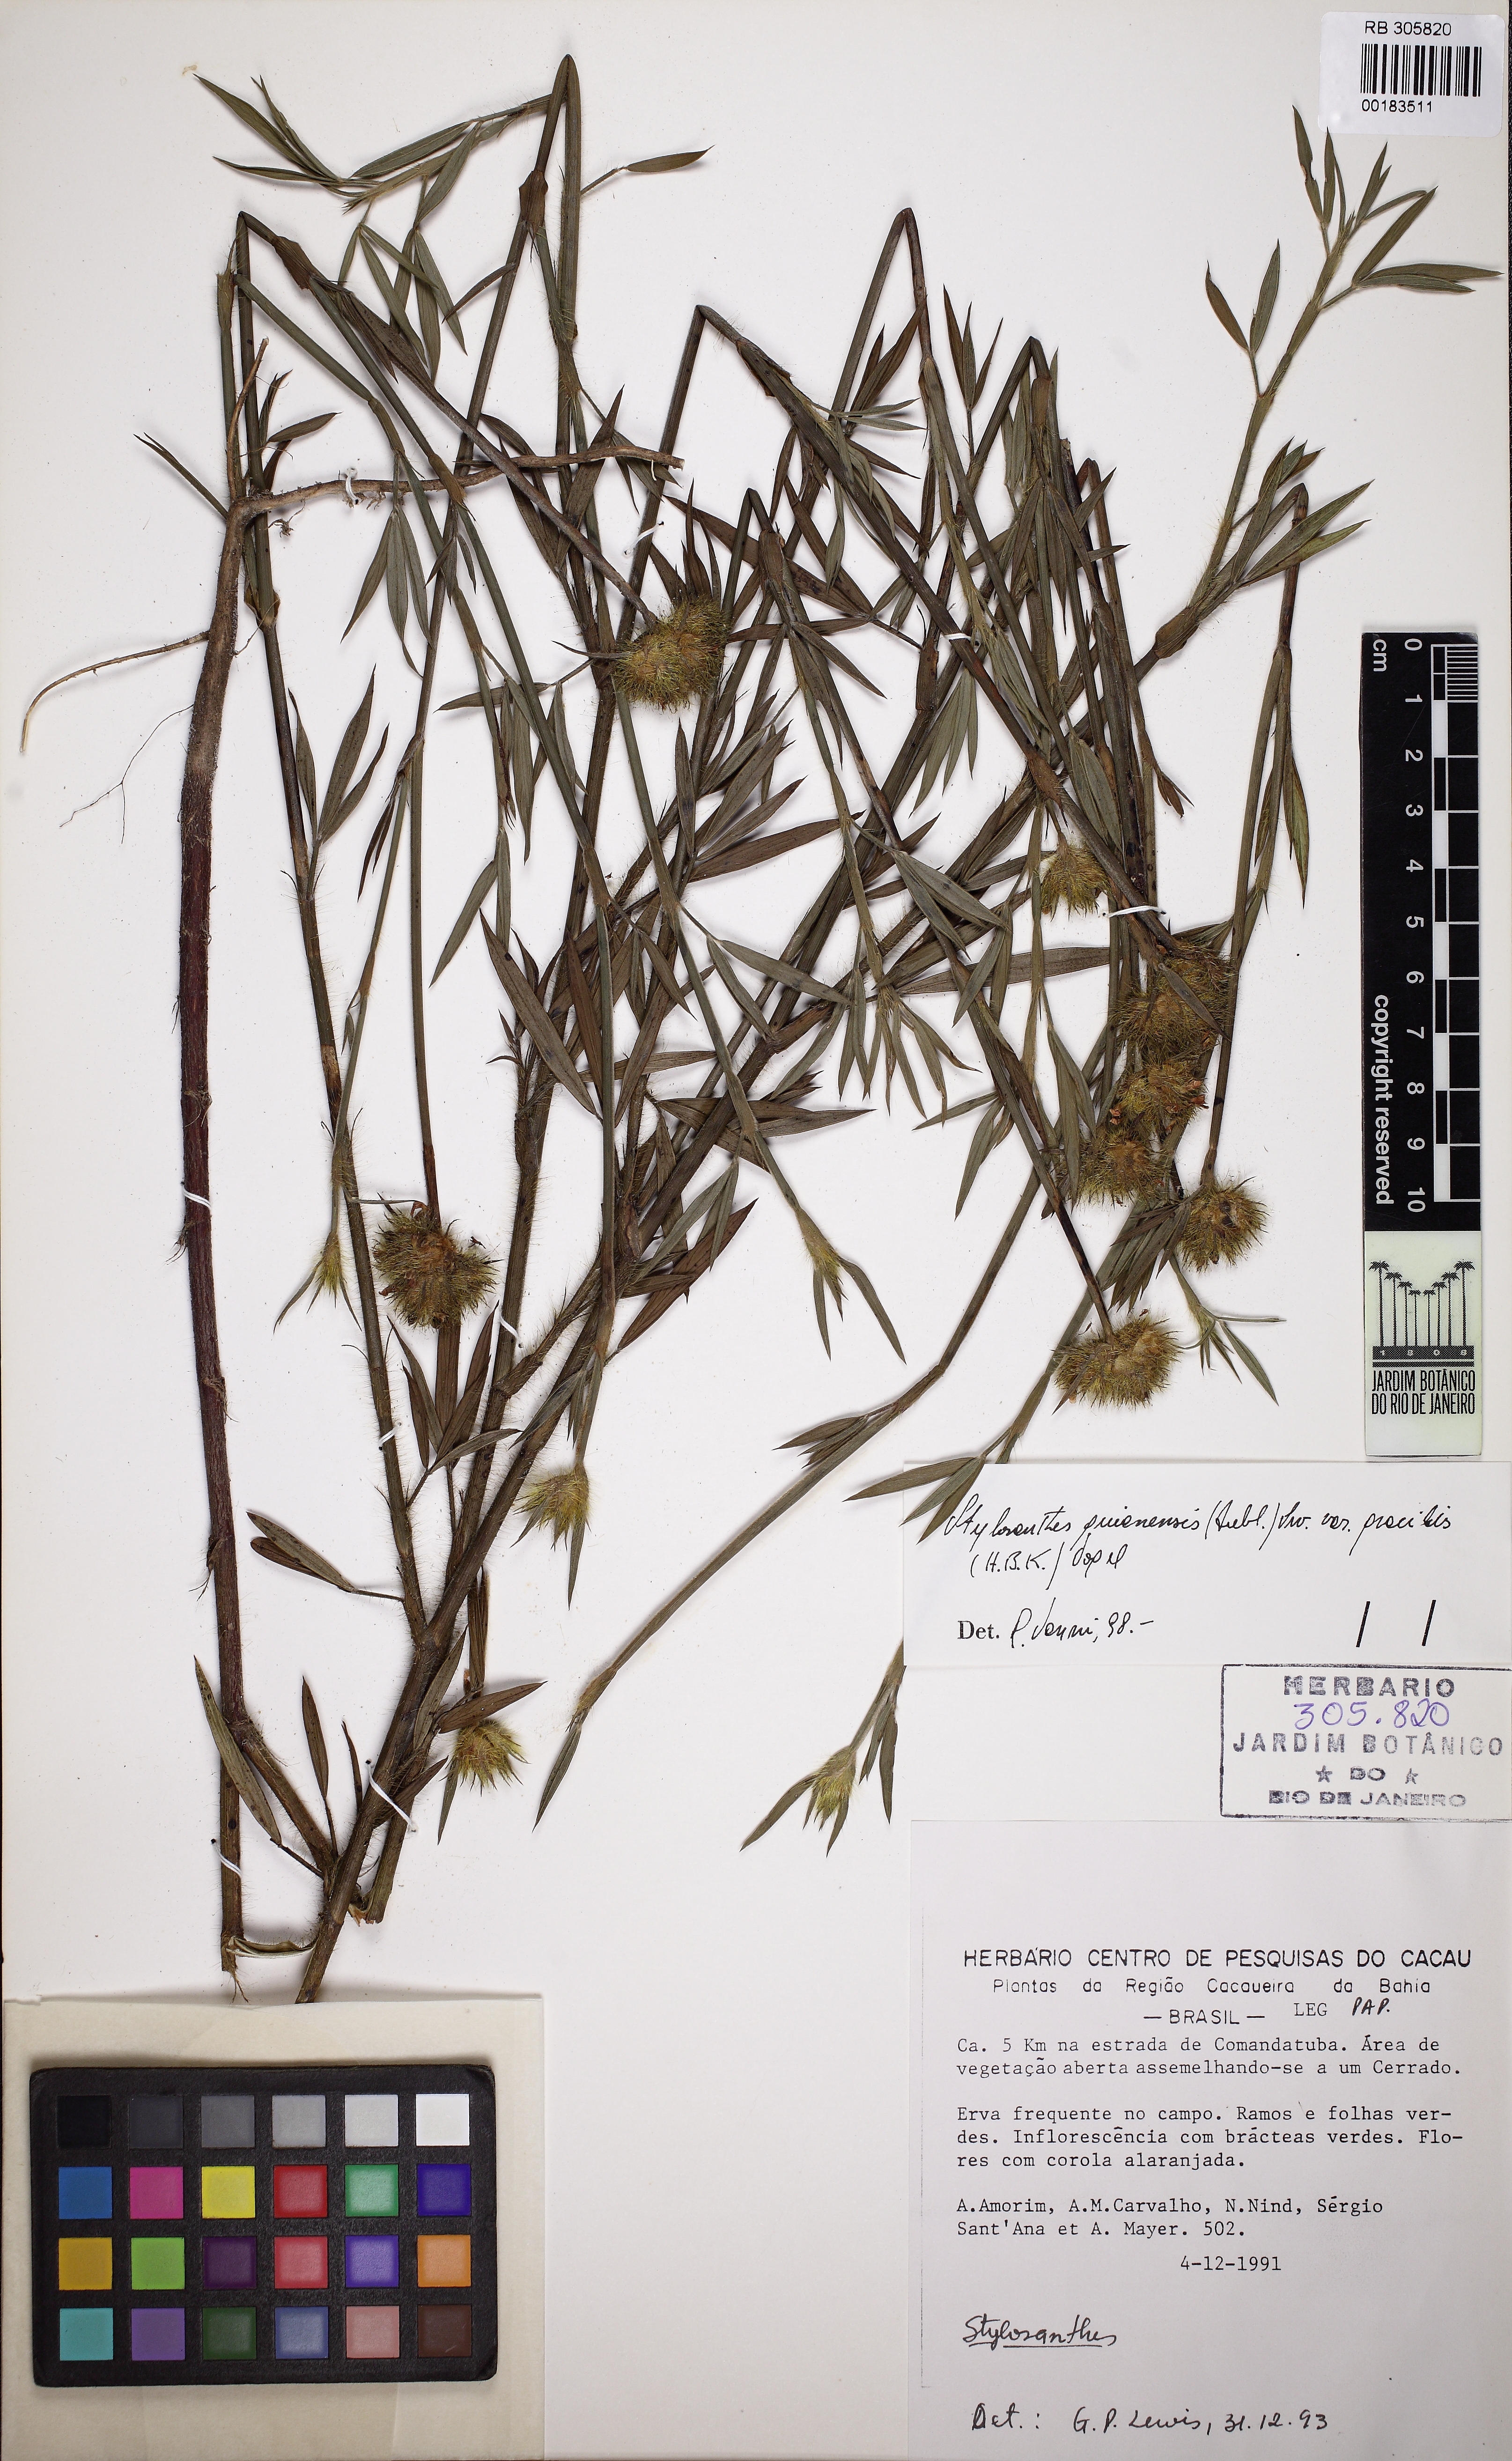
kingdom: Plantae
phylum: Tracheophyta
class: Magnoliopsida
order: Fabales
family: Fabaceae
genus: Stylosanthes
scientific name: Stylosanthes guianensis
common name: Pencil flower
